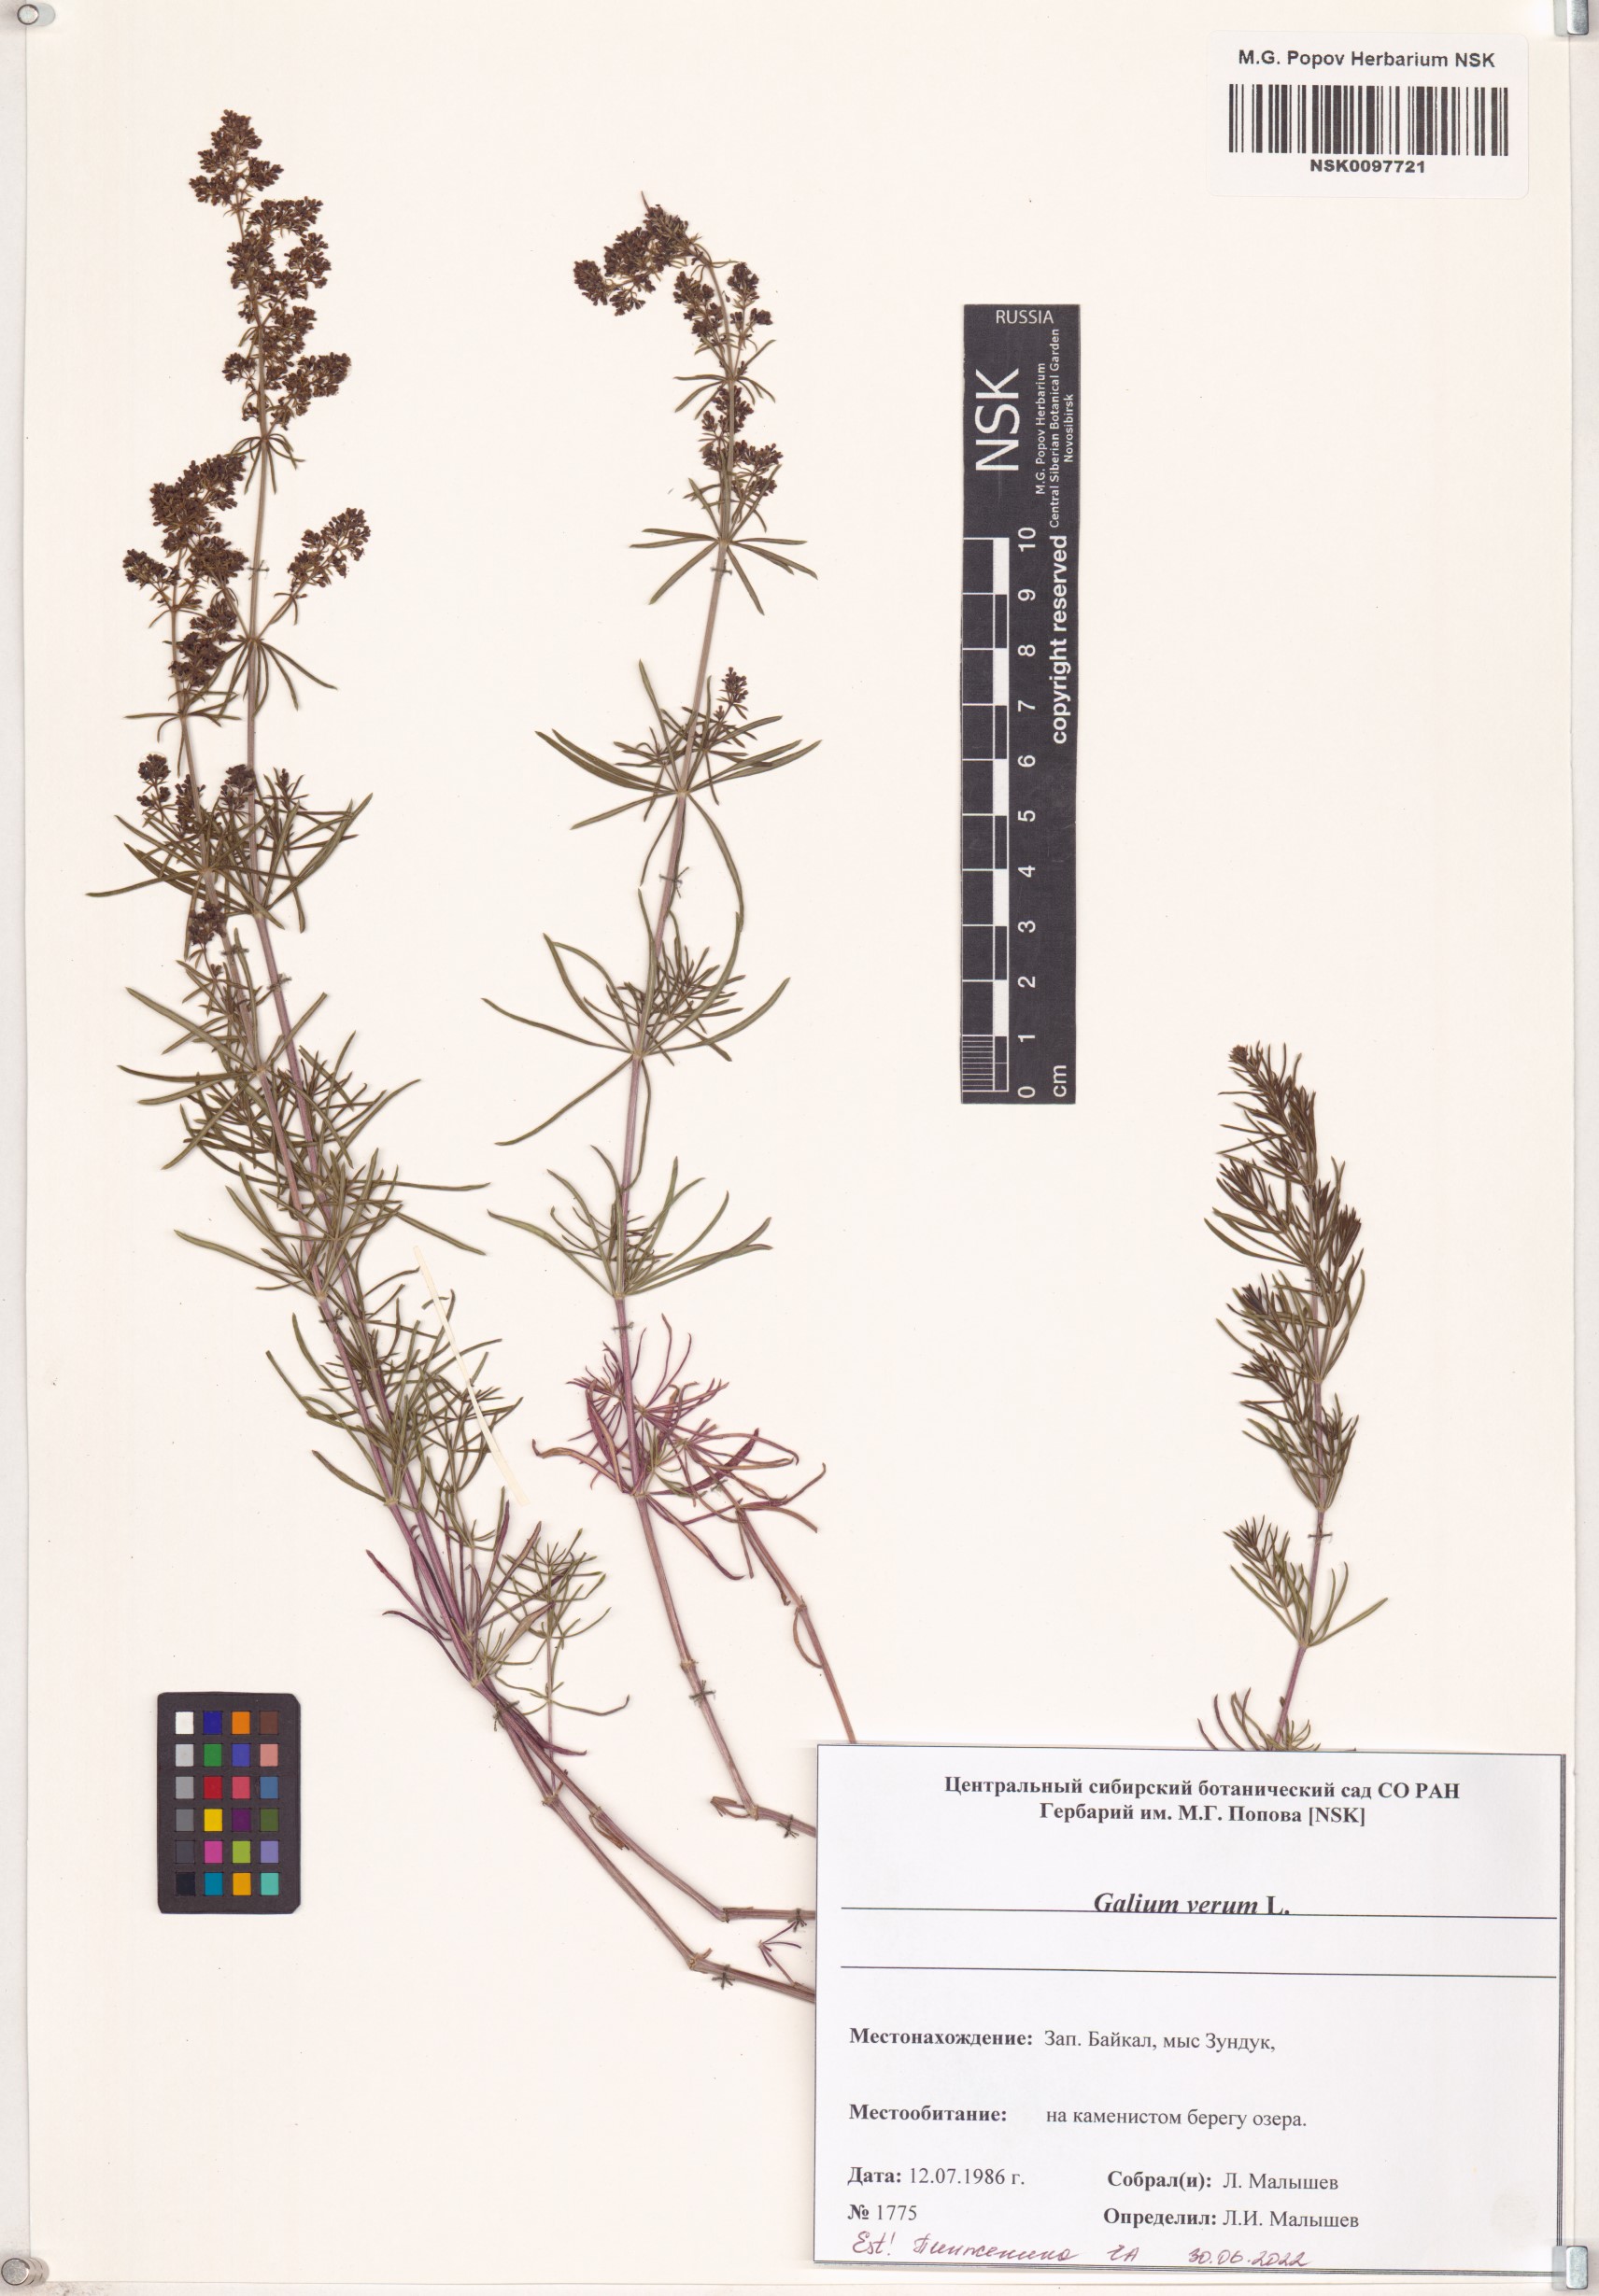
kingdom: Plantae
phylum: Tracheophyta
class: Magnoliopsida
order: Gentianales
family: Rubiaceae
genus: Galium
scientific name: Galium verum
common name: Lady's bedstraw
